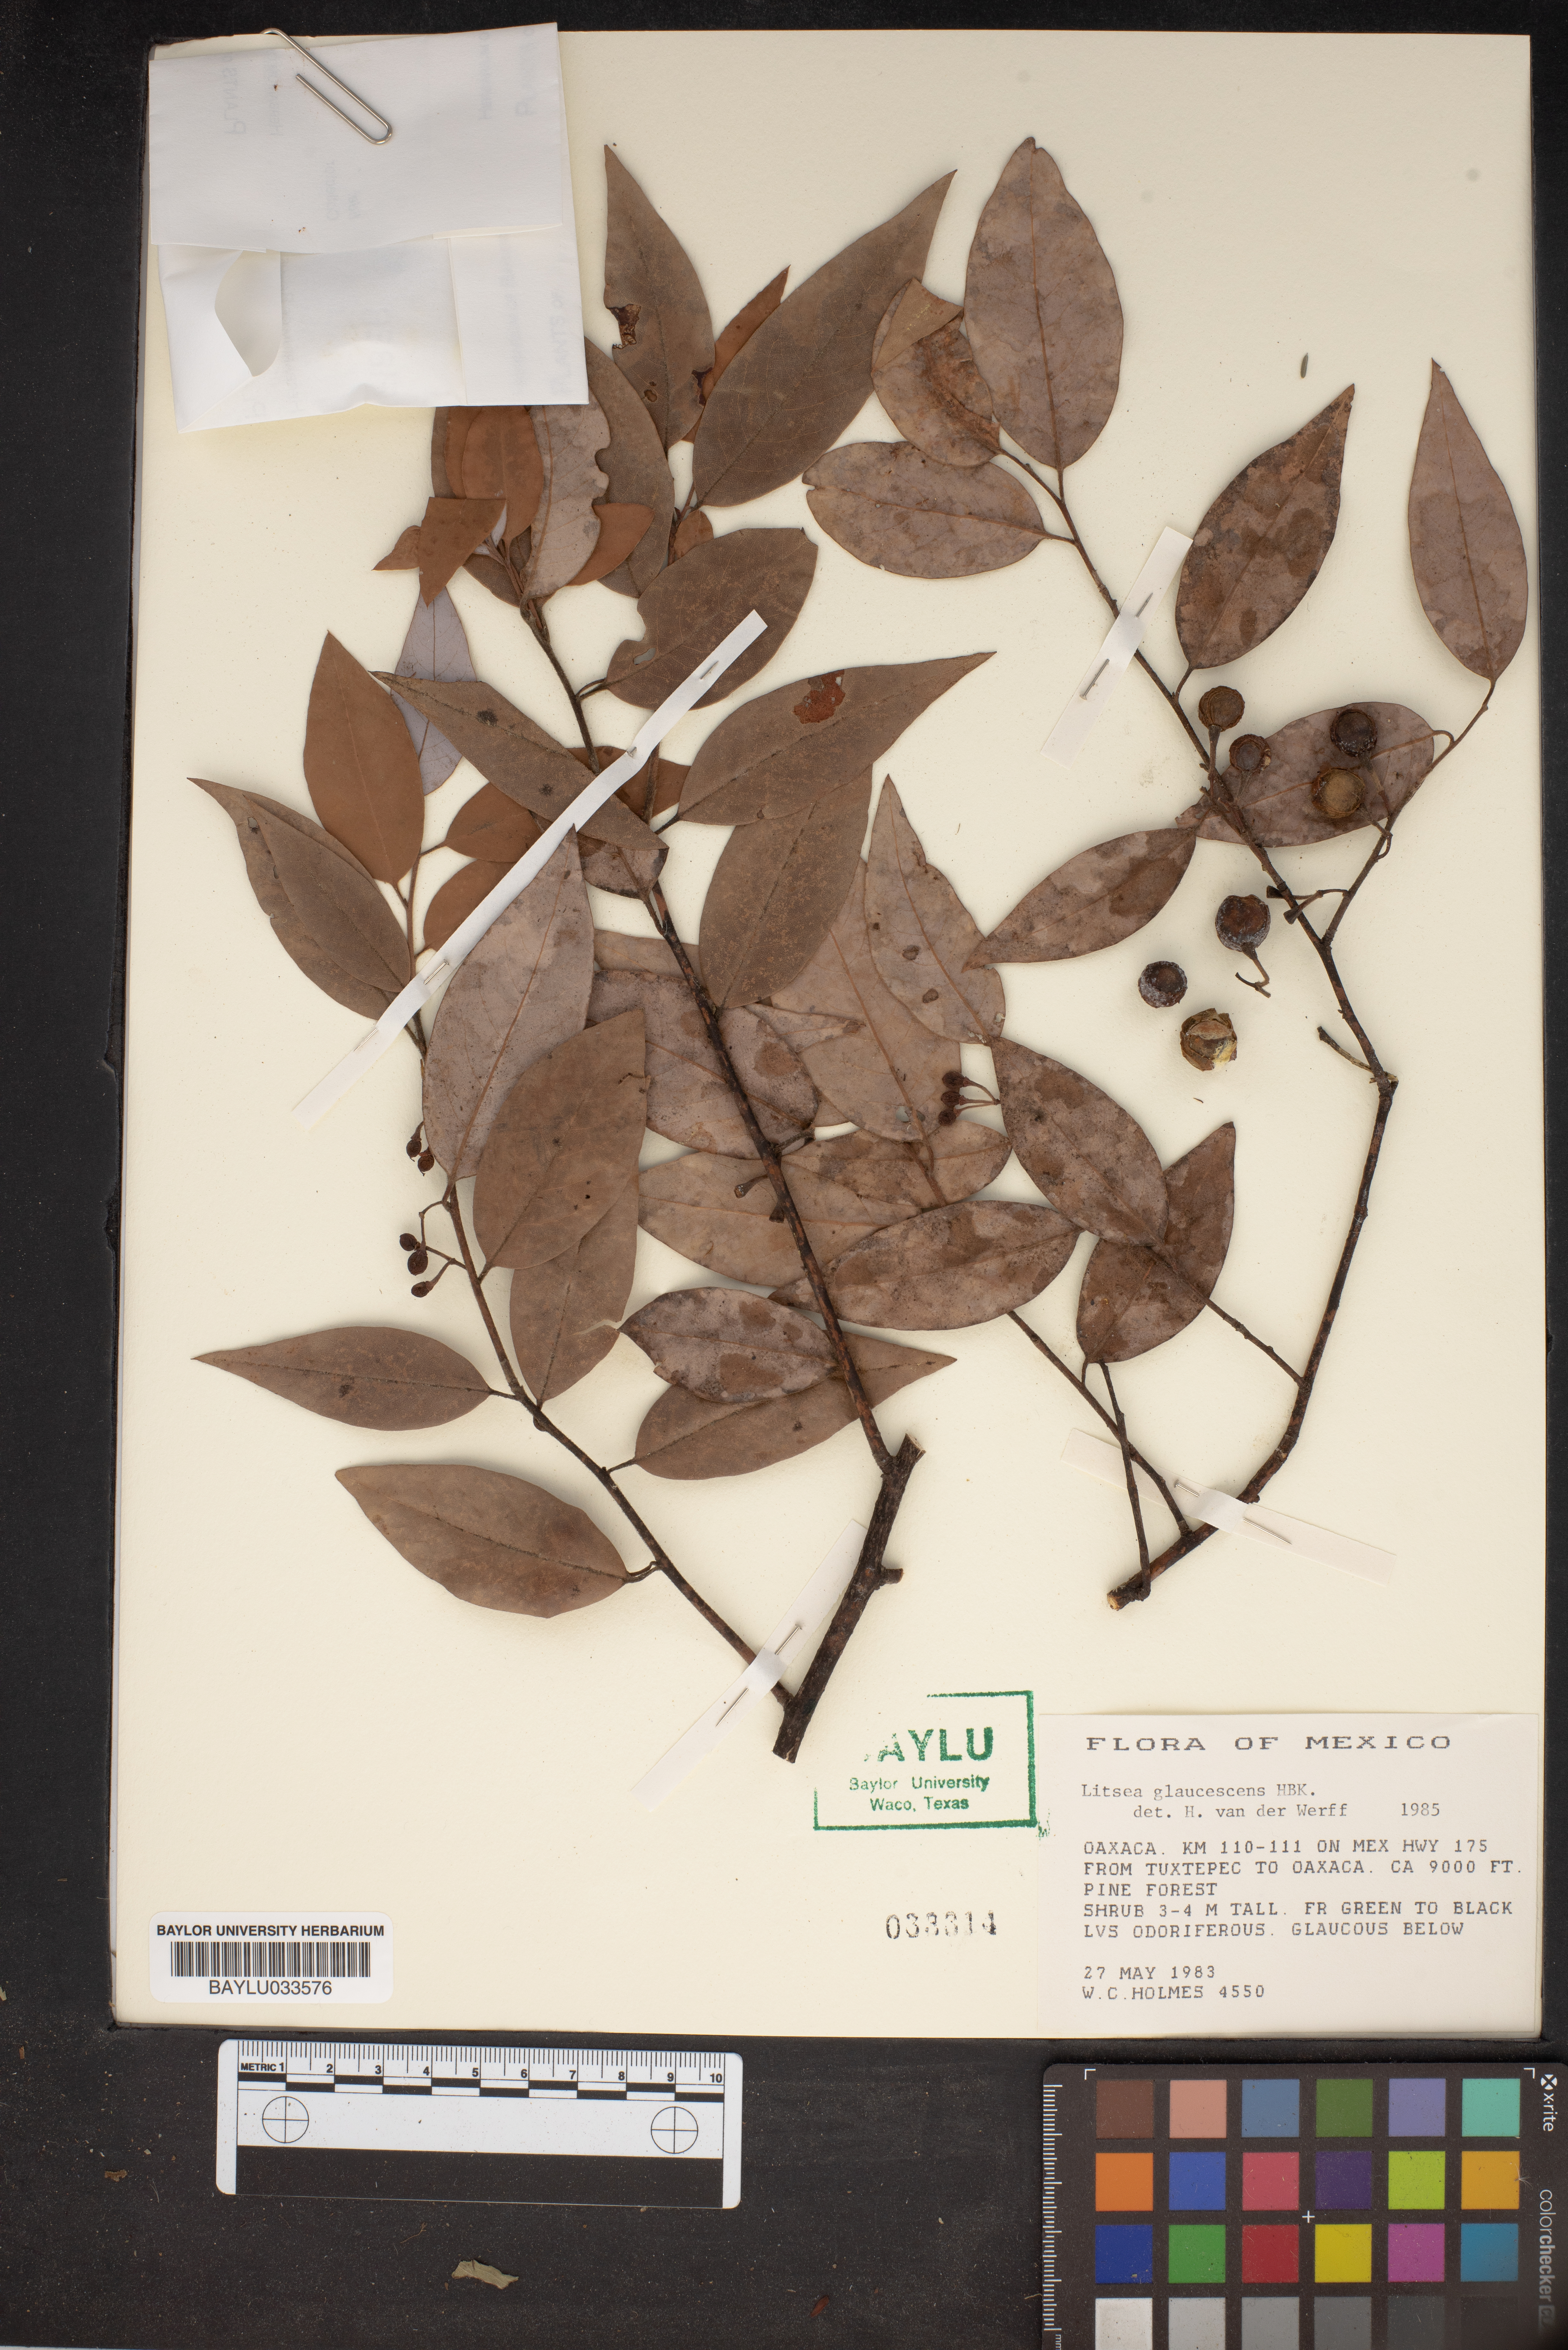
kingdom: Plantae
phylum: Tracheophyta
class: Magnoliopsida
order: Laurales
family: Lauraceae
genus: Cinnamomum
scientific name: Cinnamomum pyrifolium
